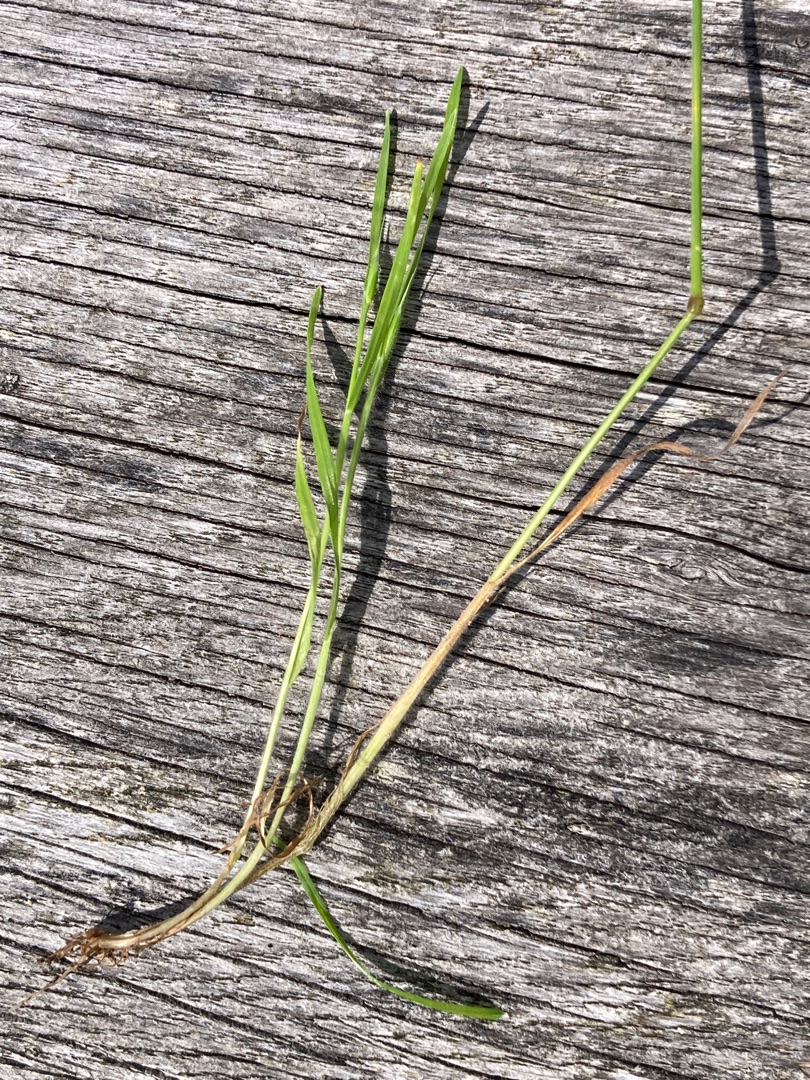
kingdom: Plantae
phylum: Tracheophyta
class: Liliopsida
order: Poales
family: Poaceae
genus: Bromus
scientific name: Bromus hordeaceus
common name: Blød hejre
